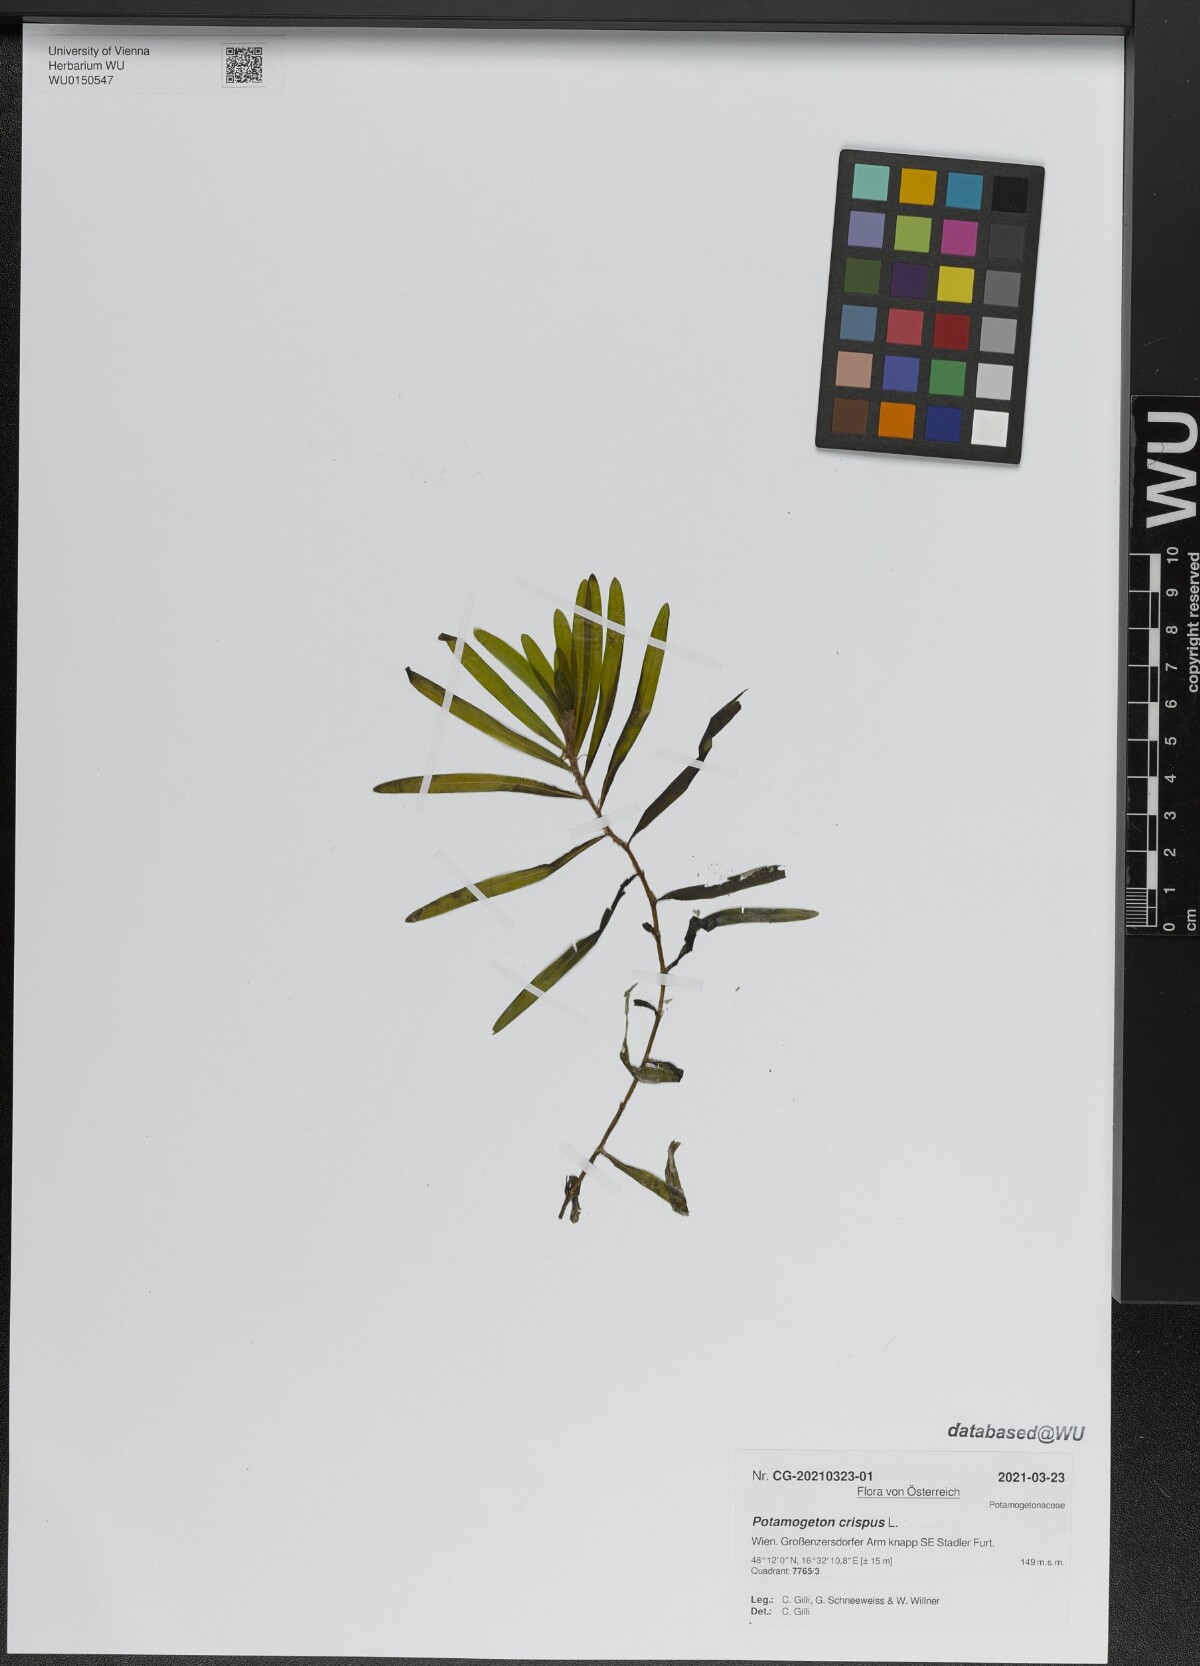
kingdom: Plantae
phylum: Tracheophyta
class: Liliopsida
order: Alismatales
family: Potamogetonaceae
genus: Potamogeton
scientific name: Potamogeton crispus
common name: Curled pondweed
